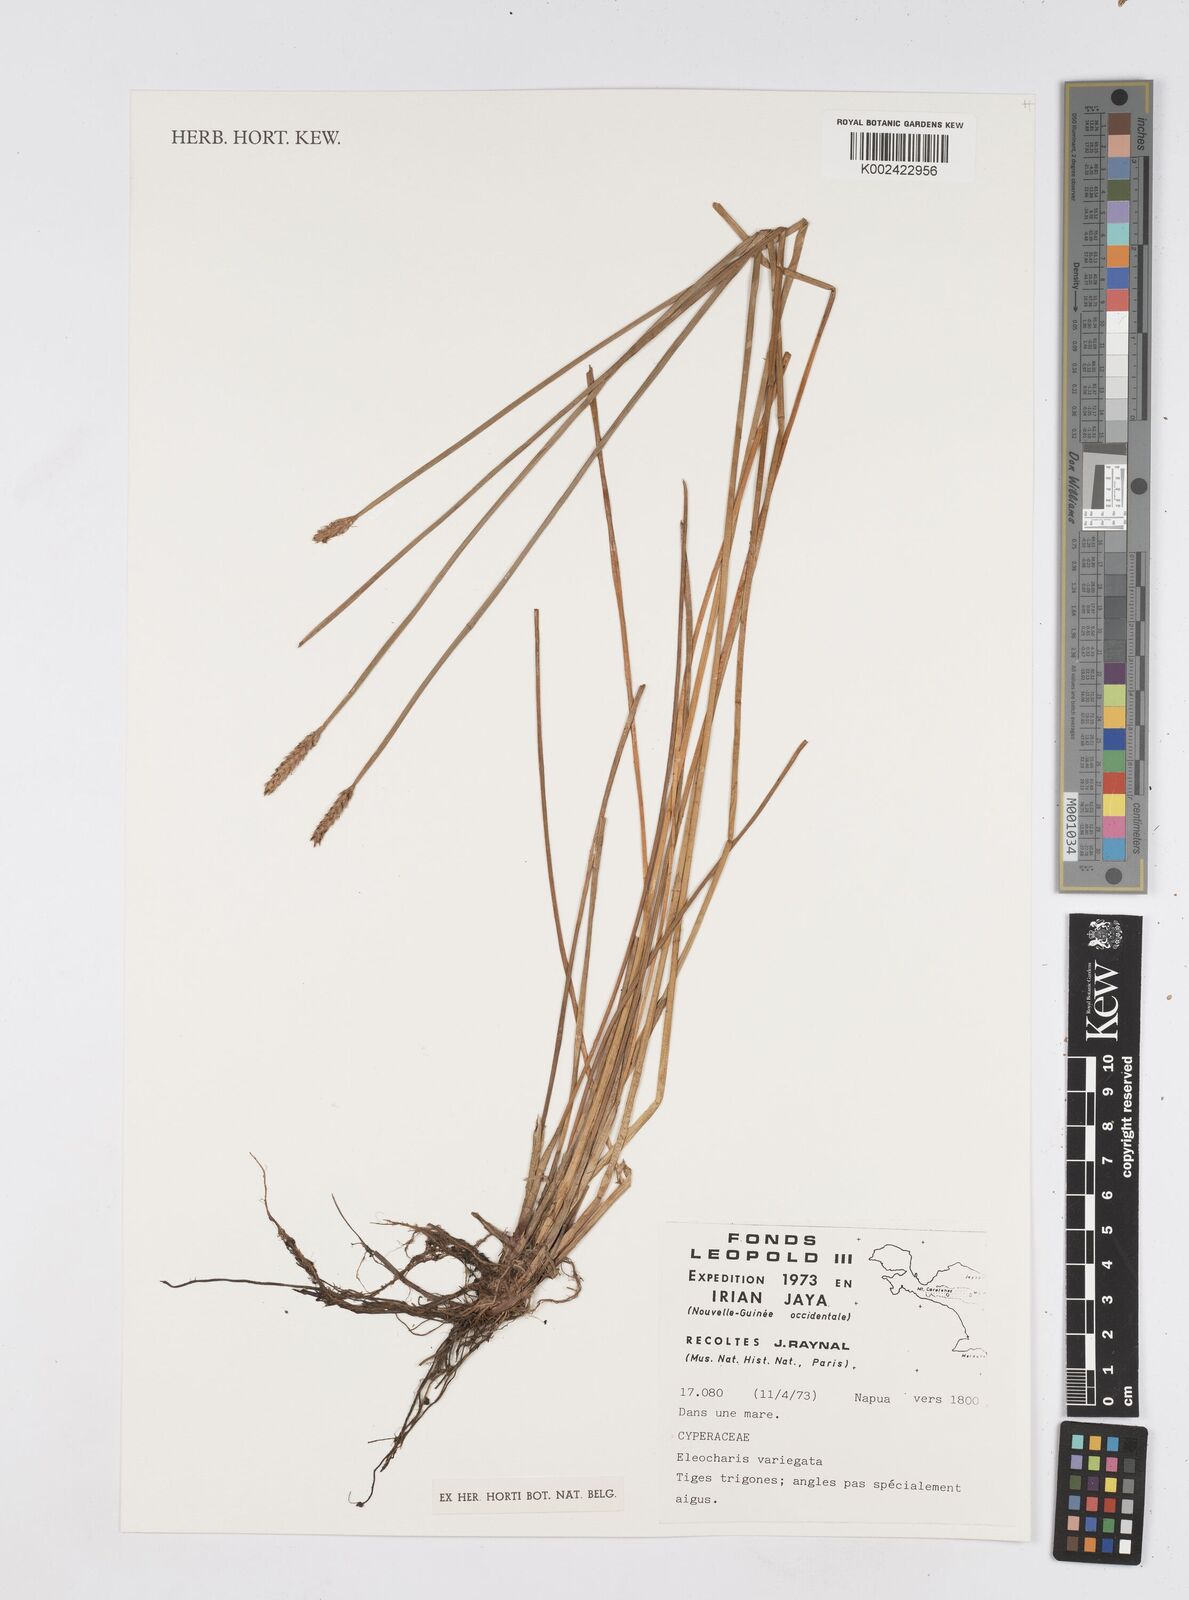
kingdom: Plantae
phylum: Tracheophyta
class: Liliopsida
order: Poales
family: Cyperaceae
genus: Eleocharis
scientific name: Eleocharis variegata
